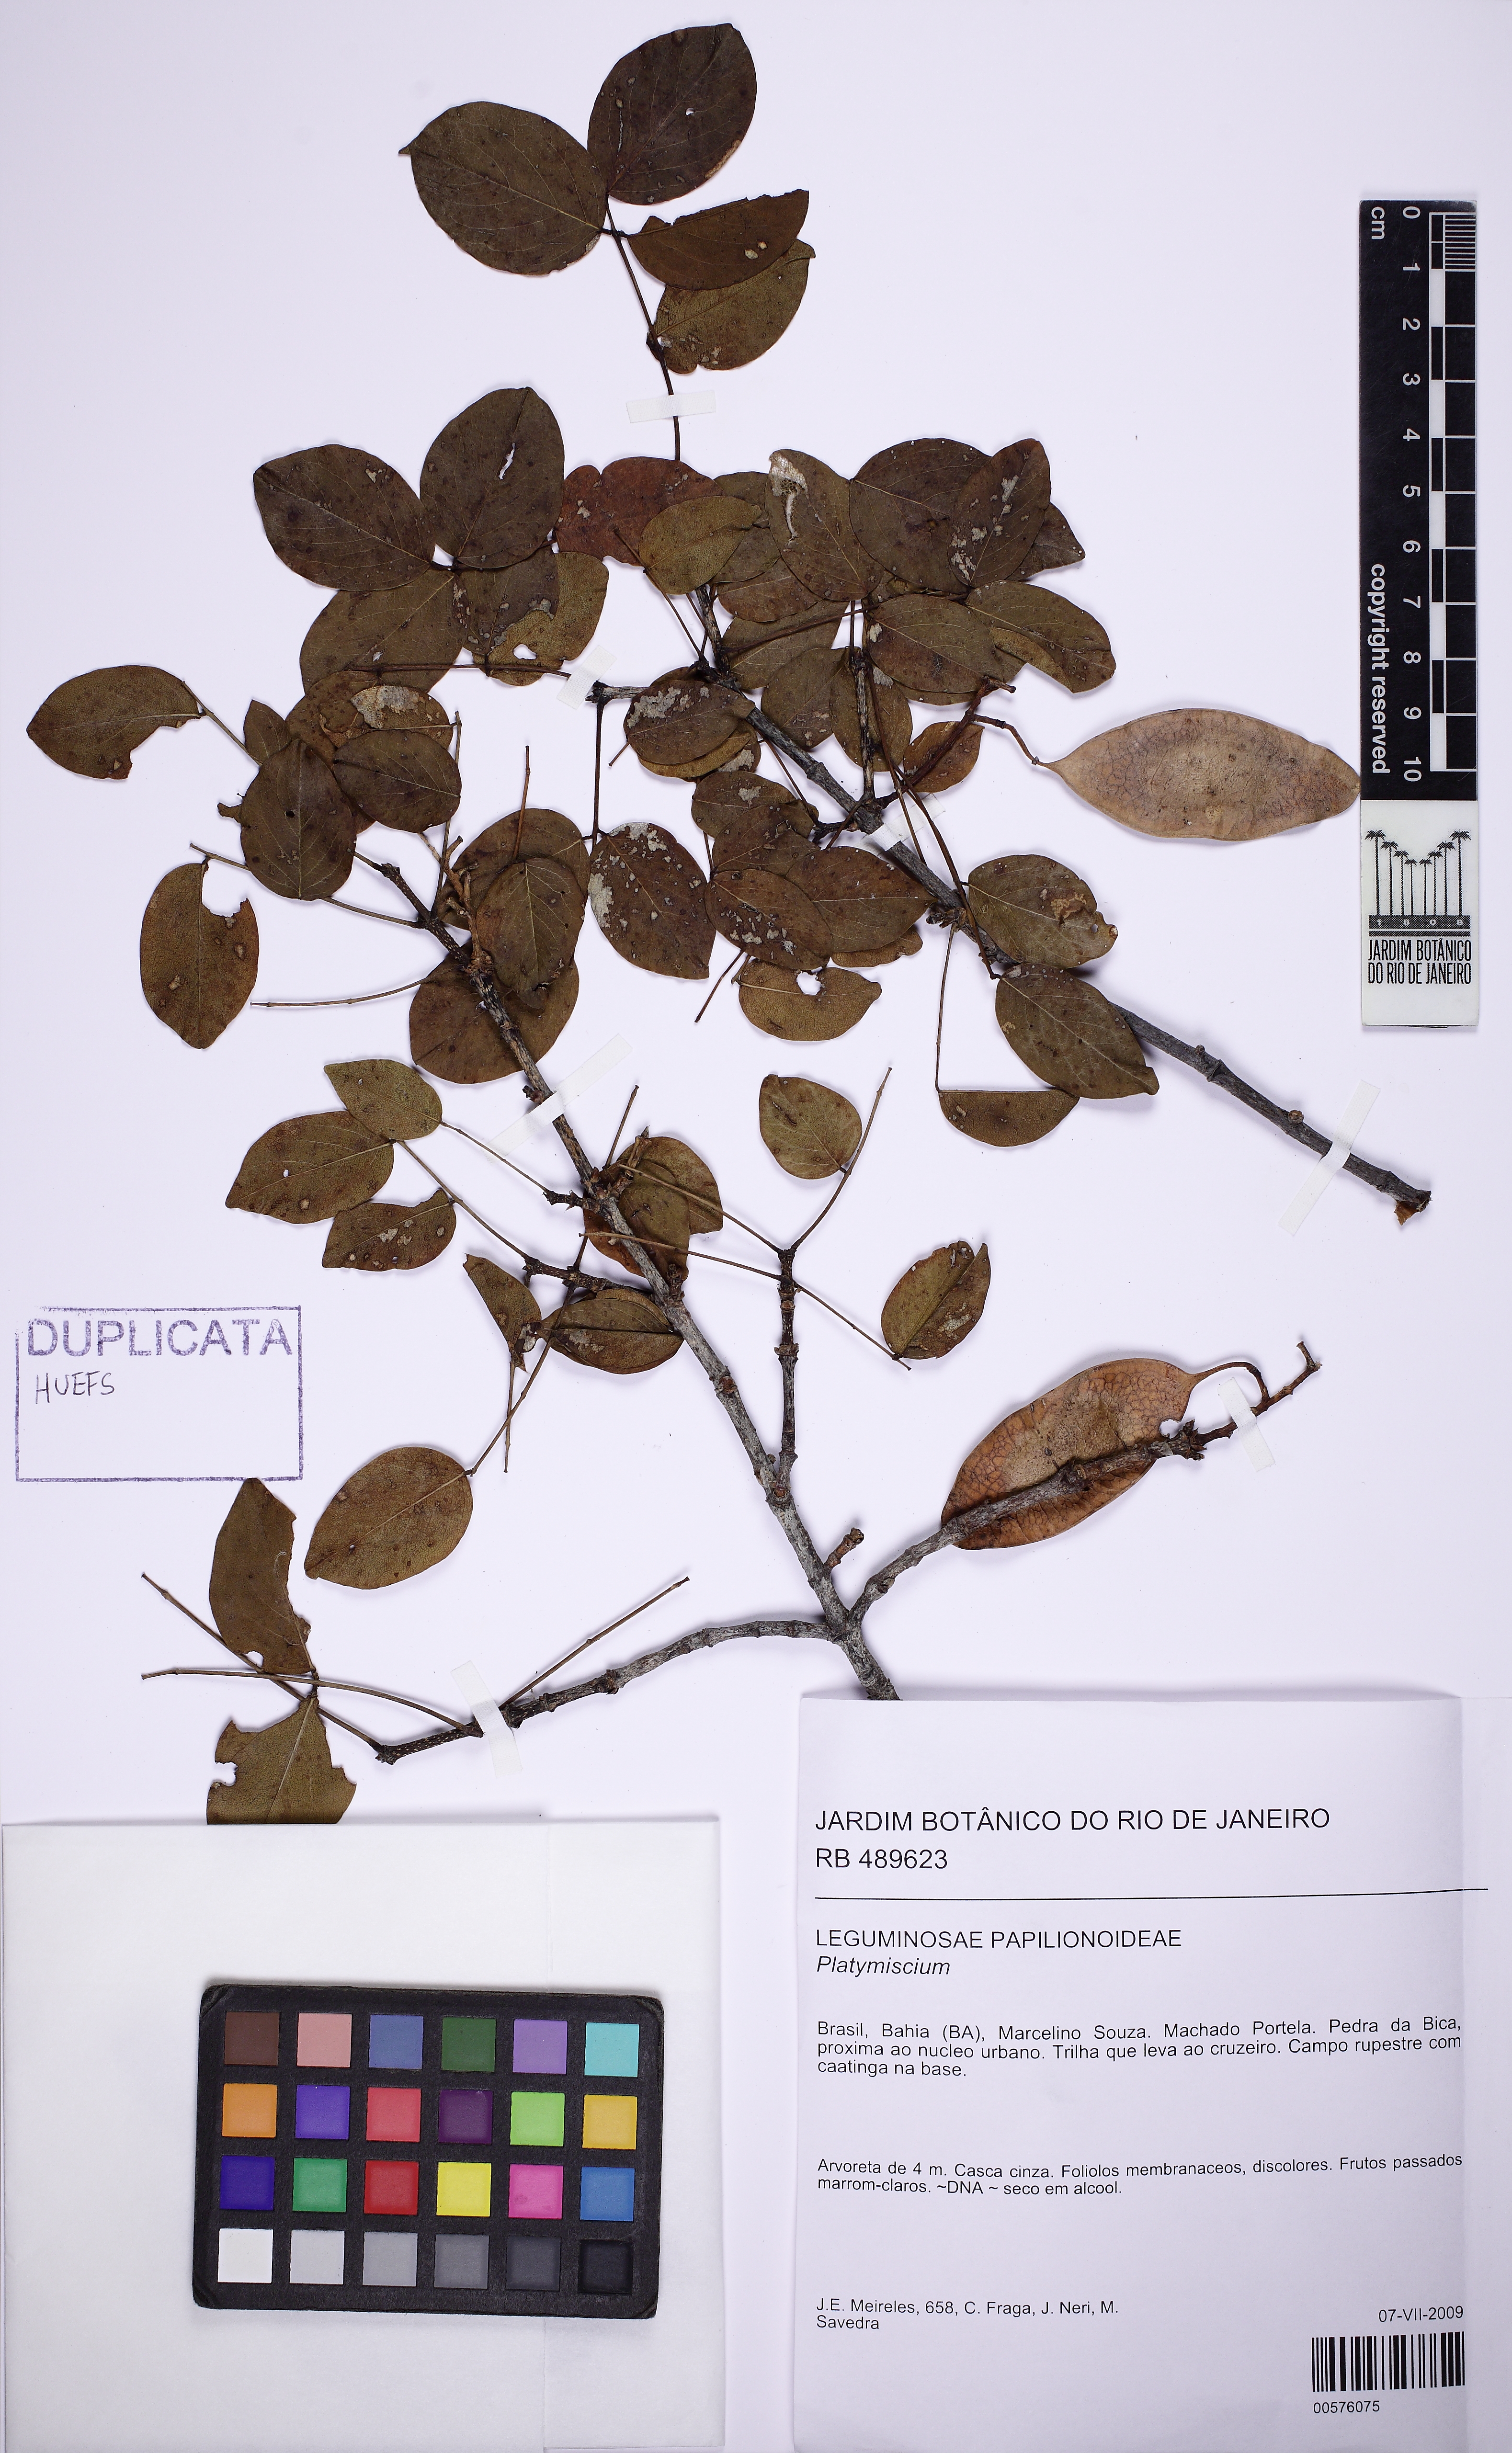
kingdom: Plantae
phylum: Tracheophyta
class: Magnoliopsida
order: Fabales
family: Fabaceae
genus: Platymiscium
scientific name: Platymiscium
